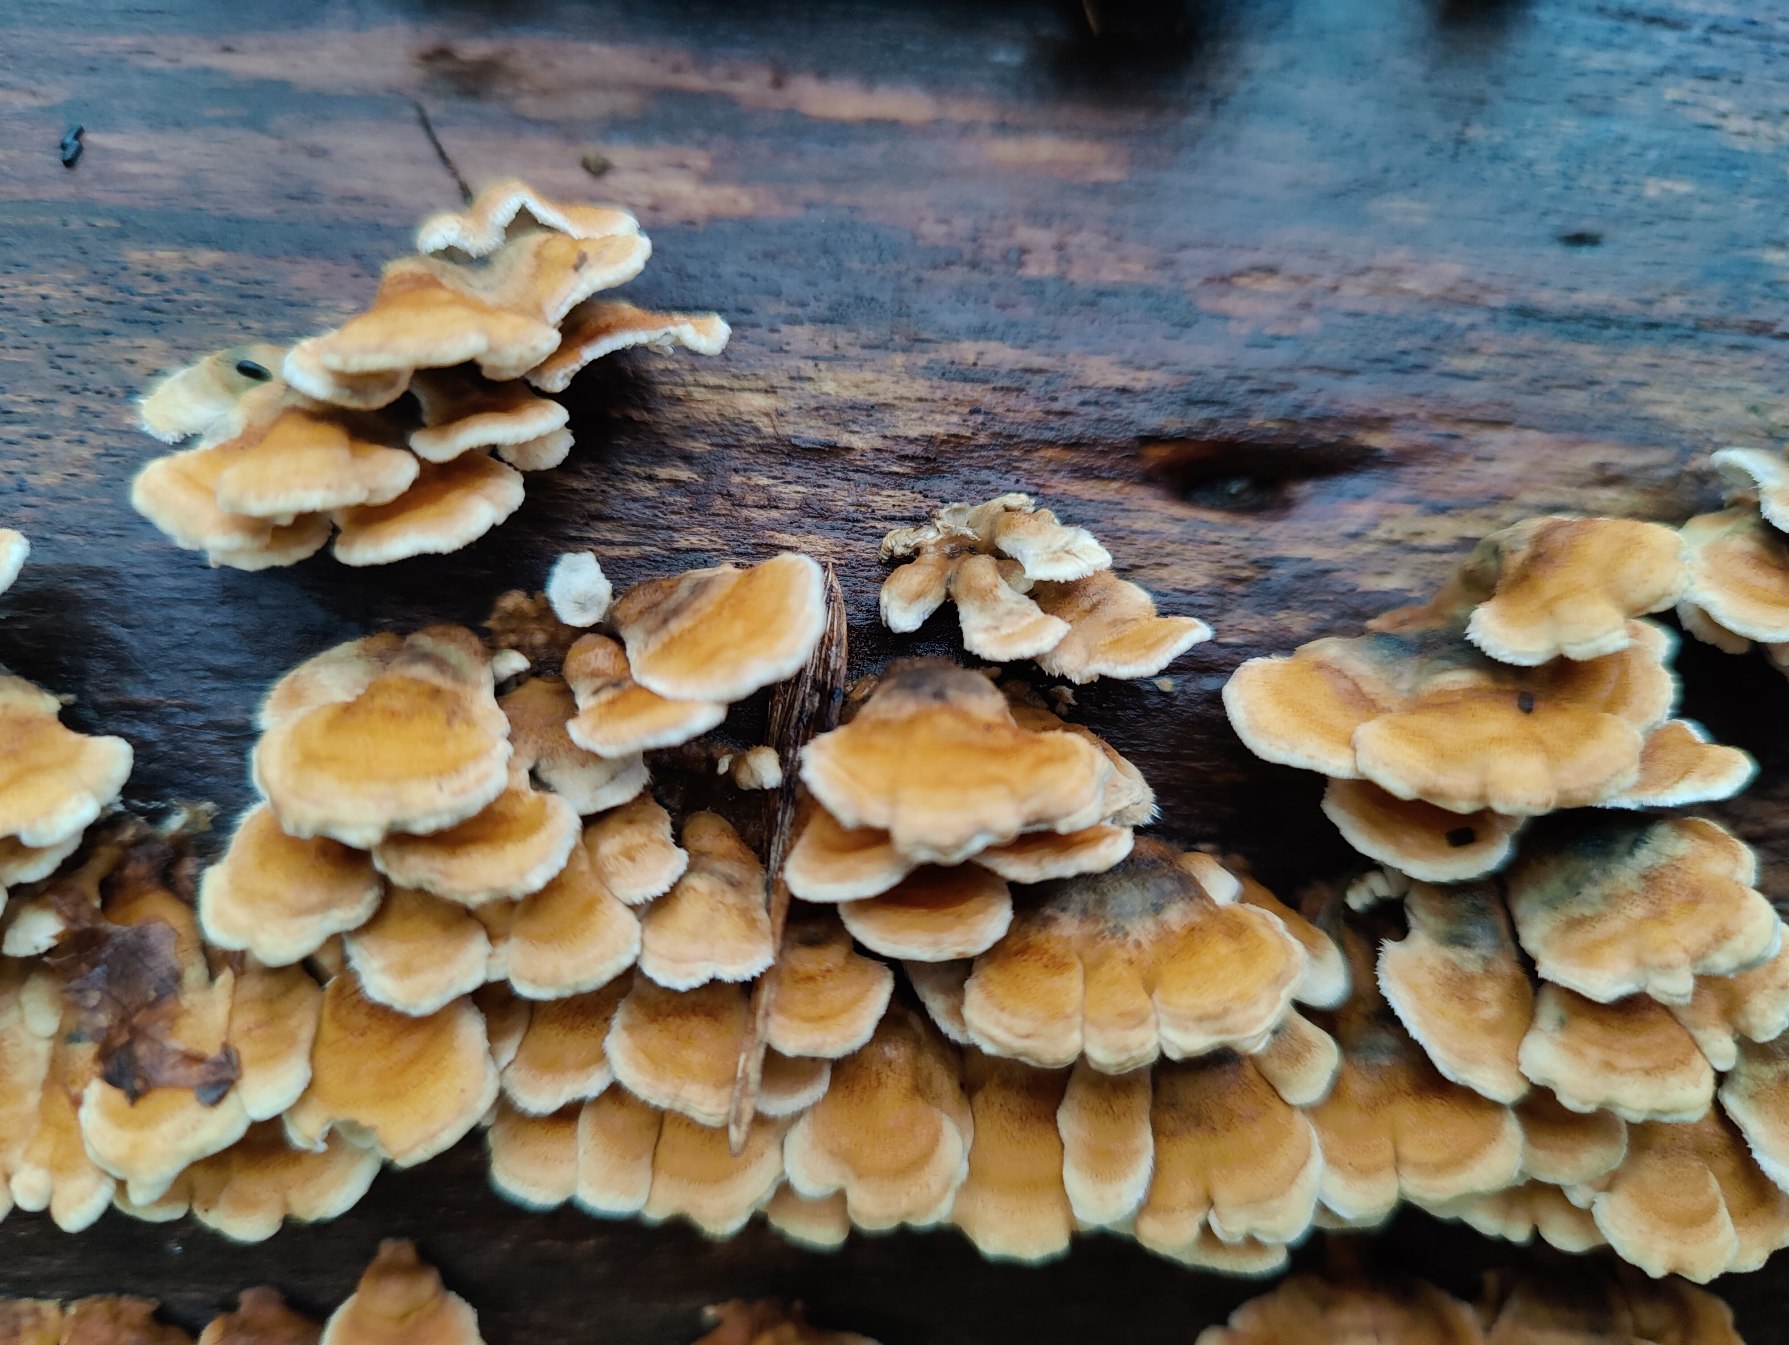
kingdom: Fungi
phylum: Basidiomycota
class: Agaricomycetes
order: Amylocorticiales
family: Amylocorticiaceae
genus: Plicaturopsis
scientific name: Plicaturopsis crispa
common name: Krusblad
